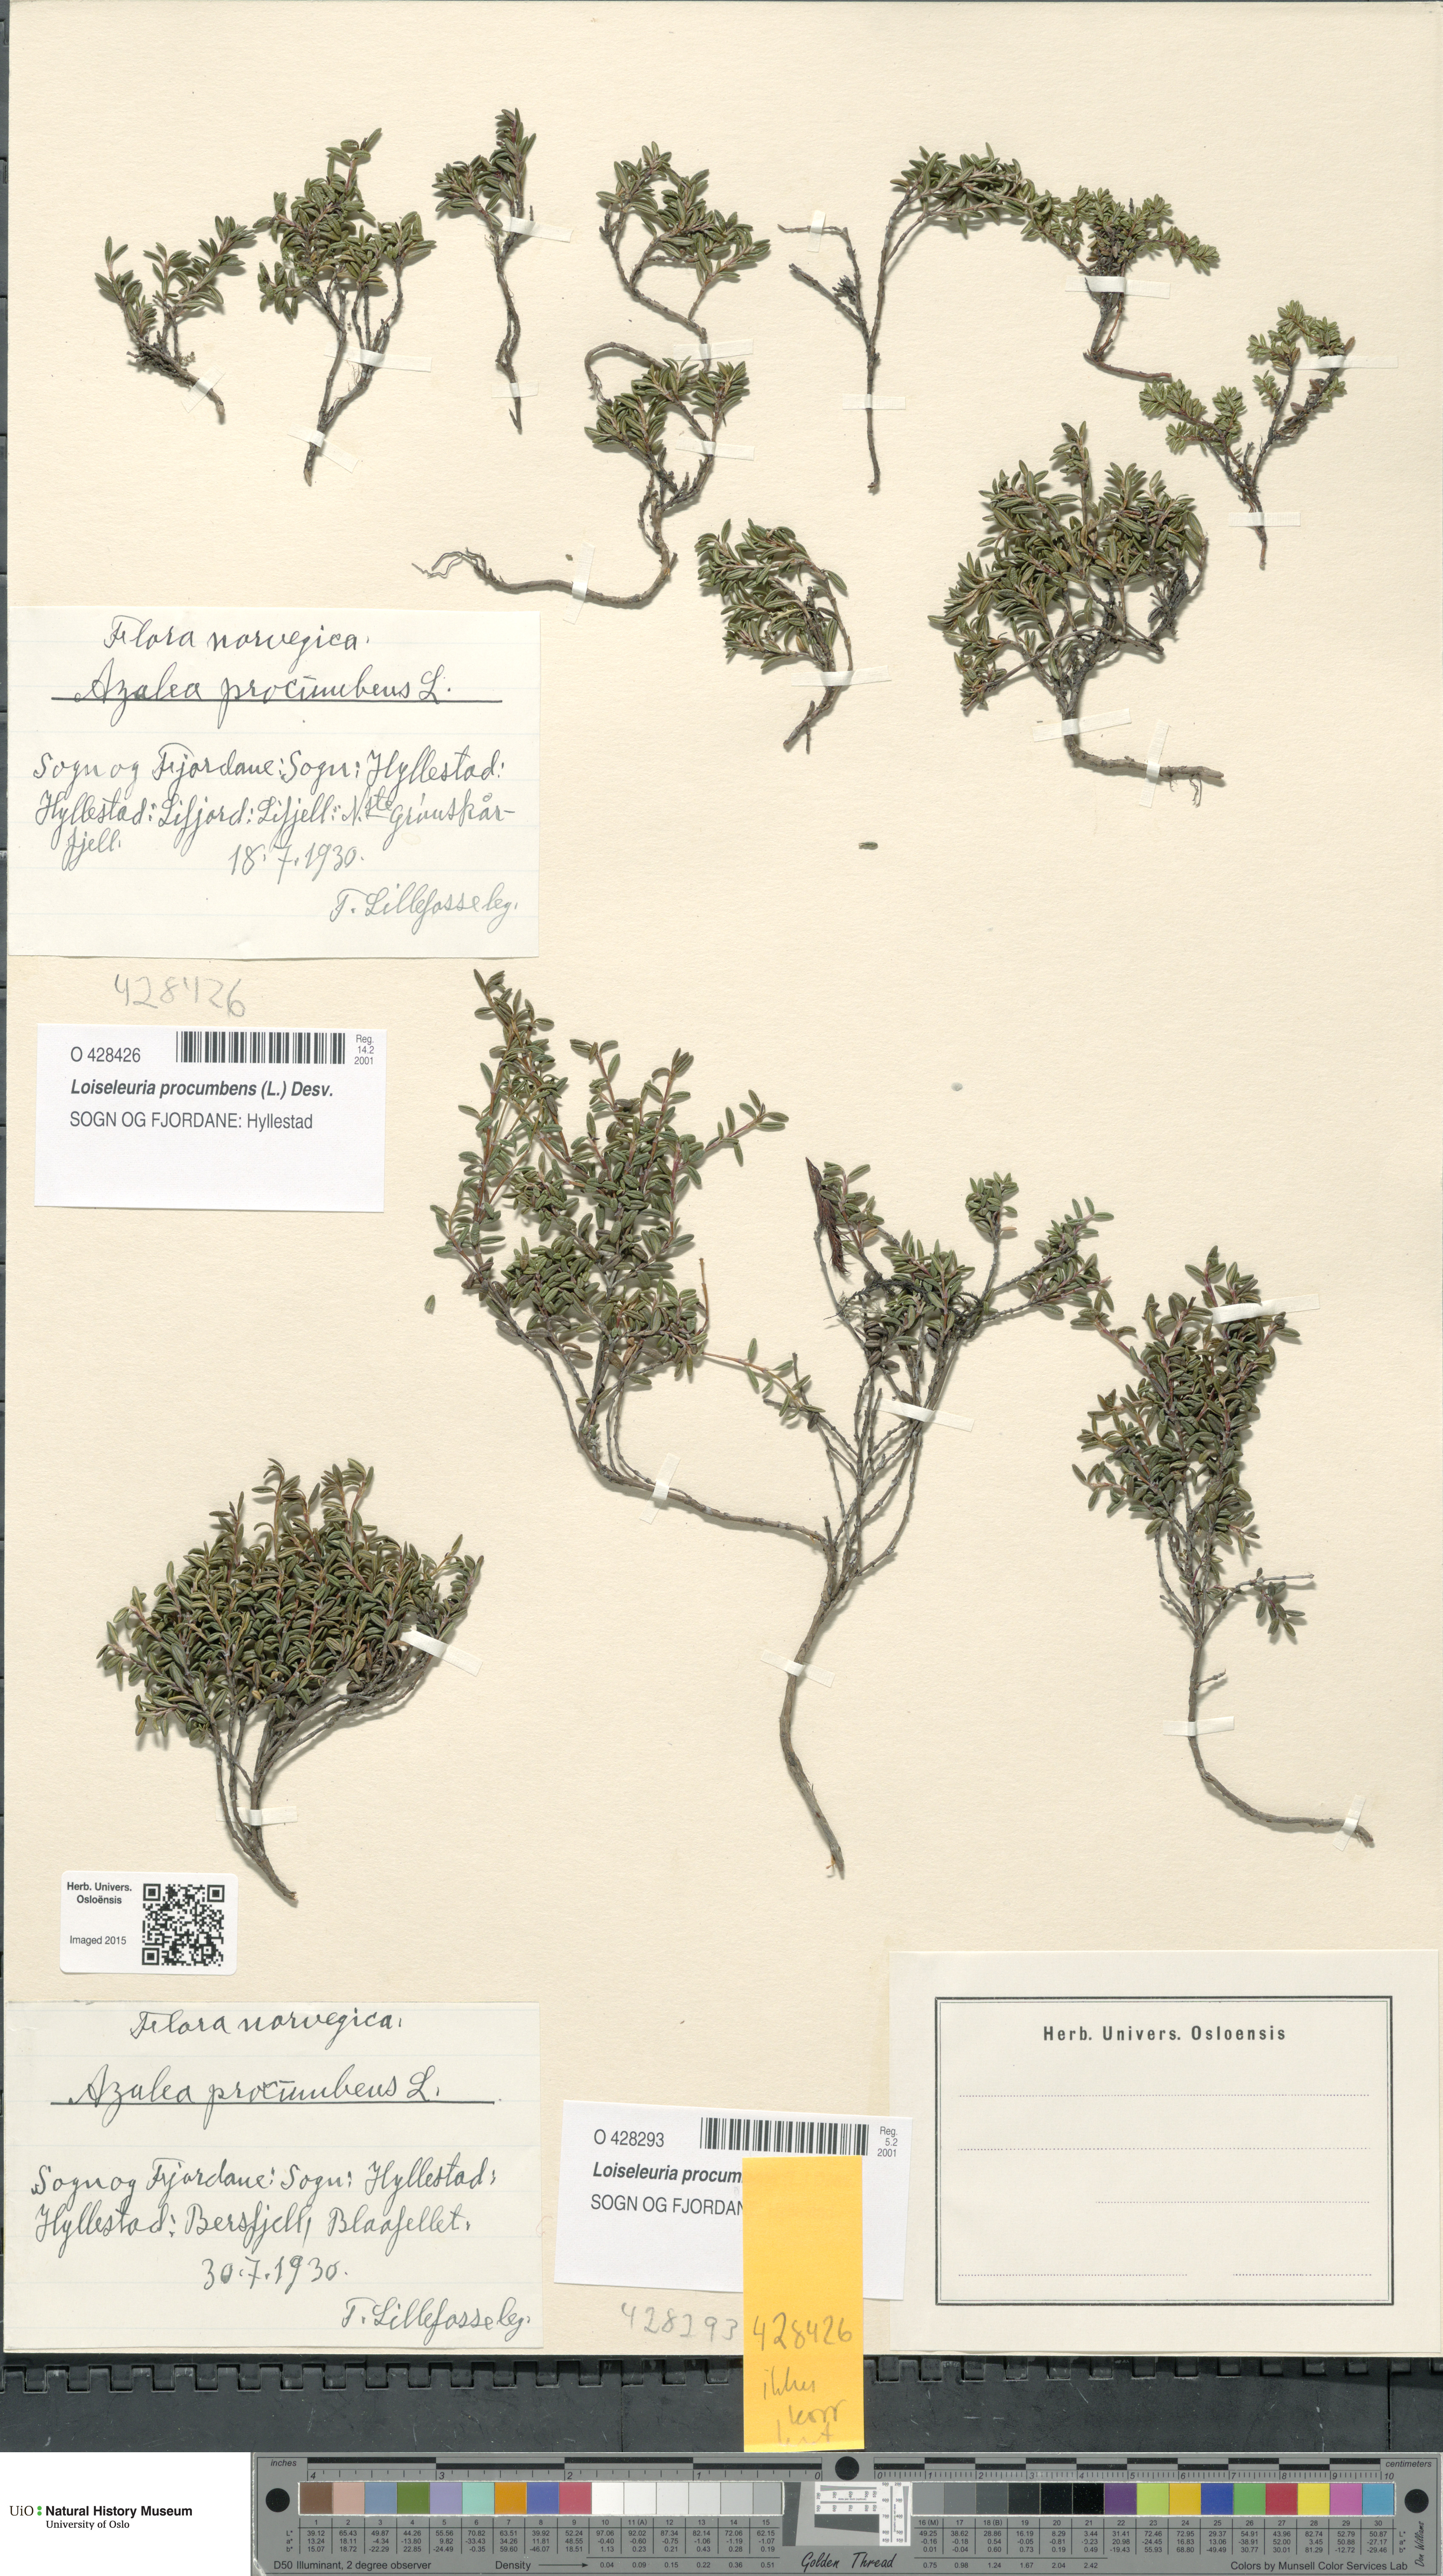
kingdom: Plantae
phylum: Tracheophyta
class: Magnoliopsida
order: Ericales
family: Ericaceae
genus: Kalmia
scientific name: Kalmia procumbens
